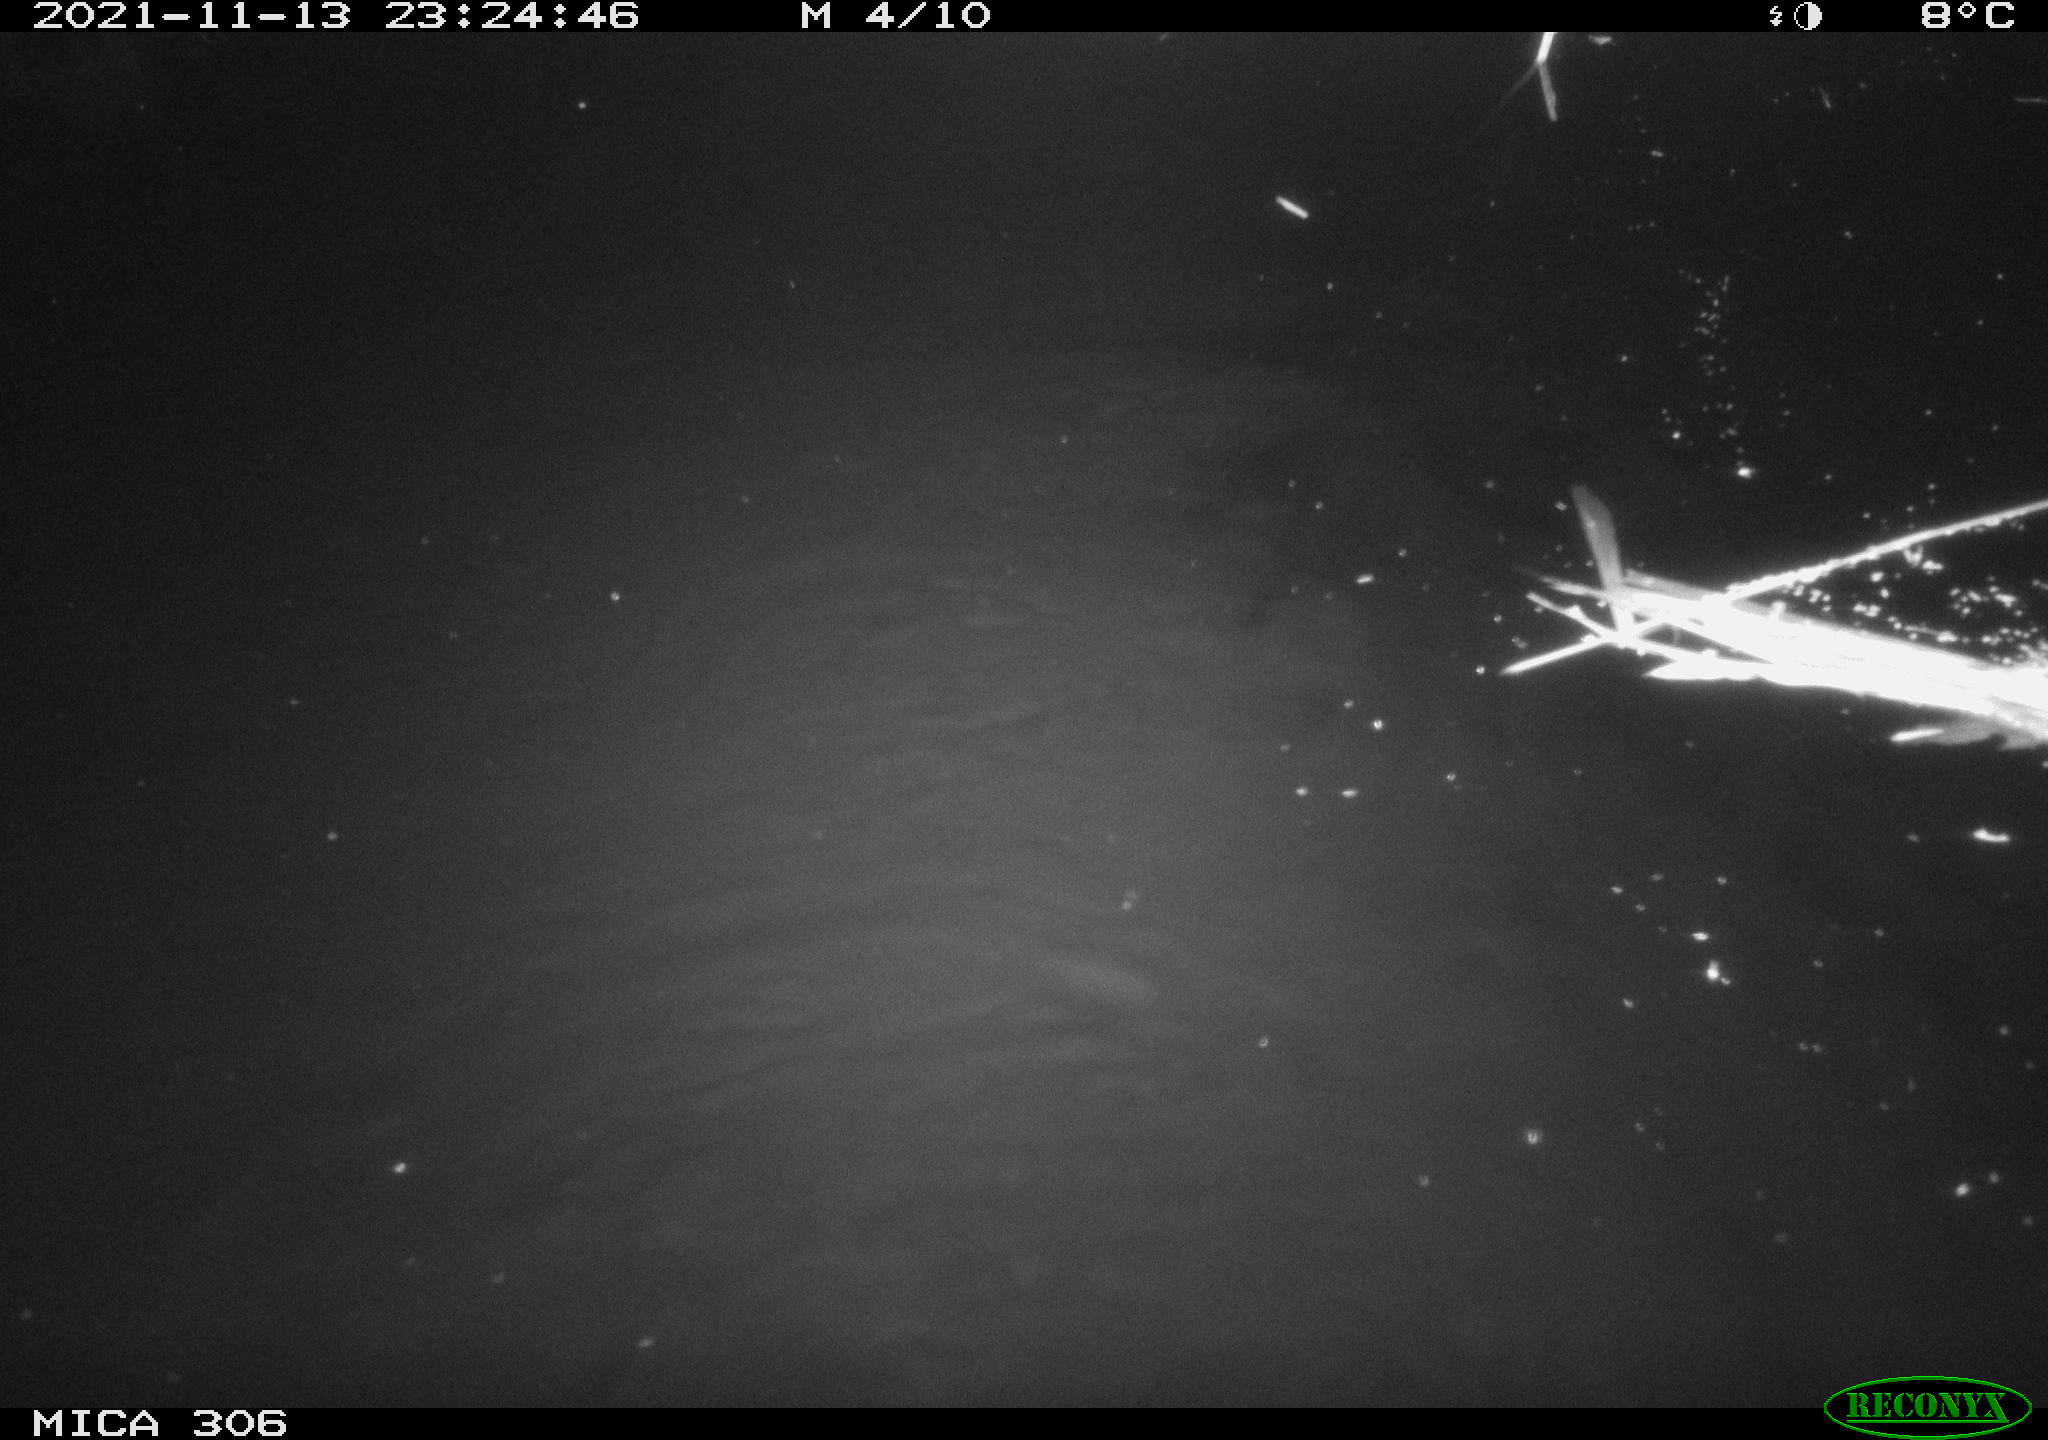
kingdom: Animalia
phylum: Chordata
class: Mammalia
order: Rodentia
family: Cricetidae
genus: Ondatra
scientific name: Ondatra zibethicus
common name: Muskrat
